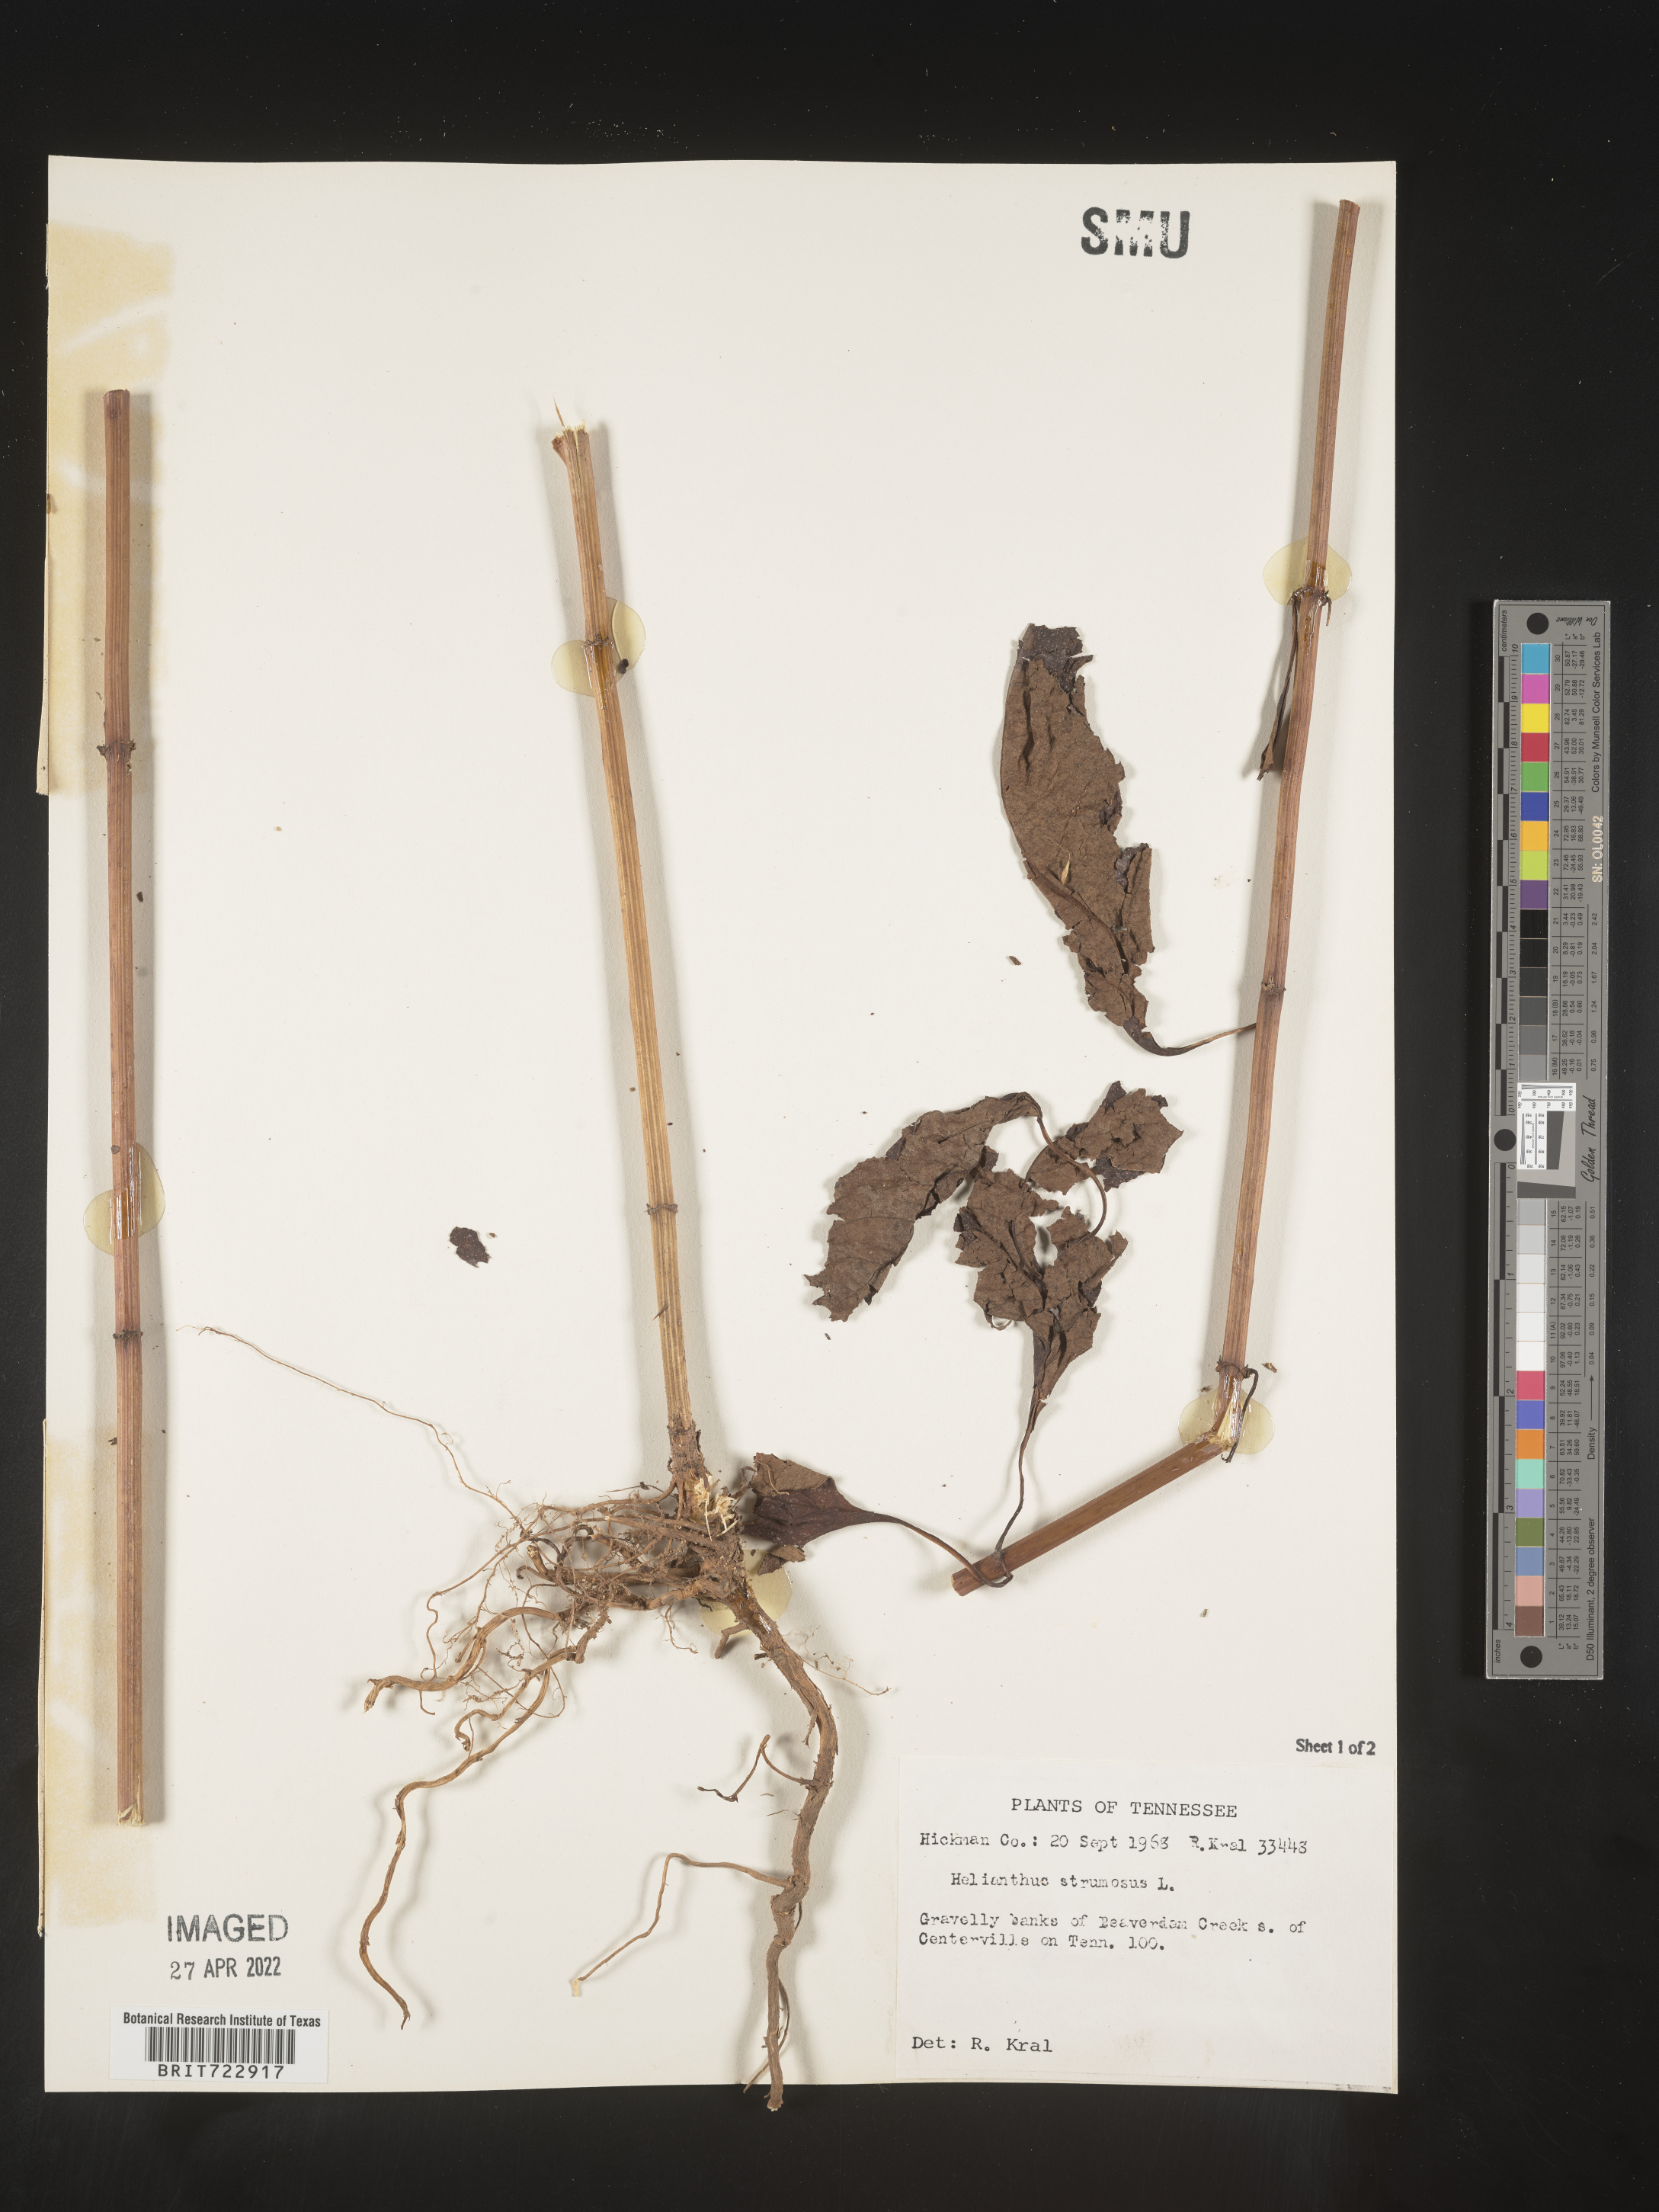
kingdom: Plantae
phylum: Tracheophyta
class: Magnoliopsida
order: Asterales
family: Asteraceae
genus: Helianthus
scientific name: Helianthus strumosus
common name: Pale-leaved sunflower
